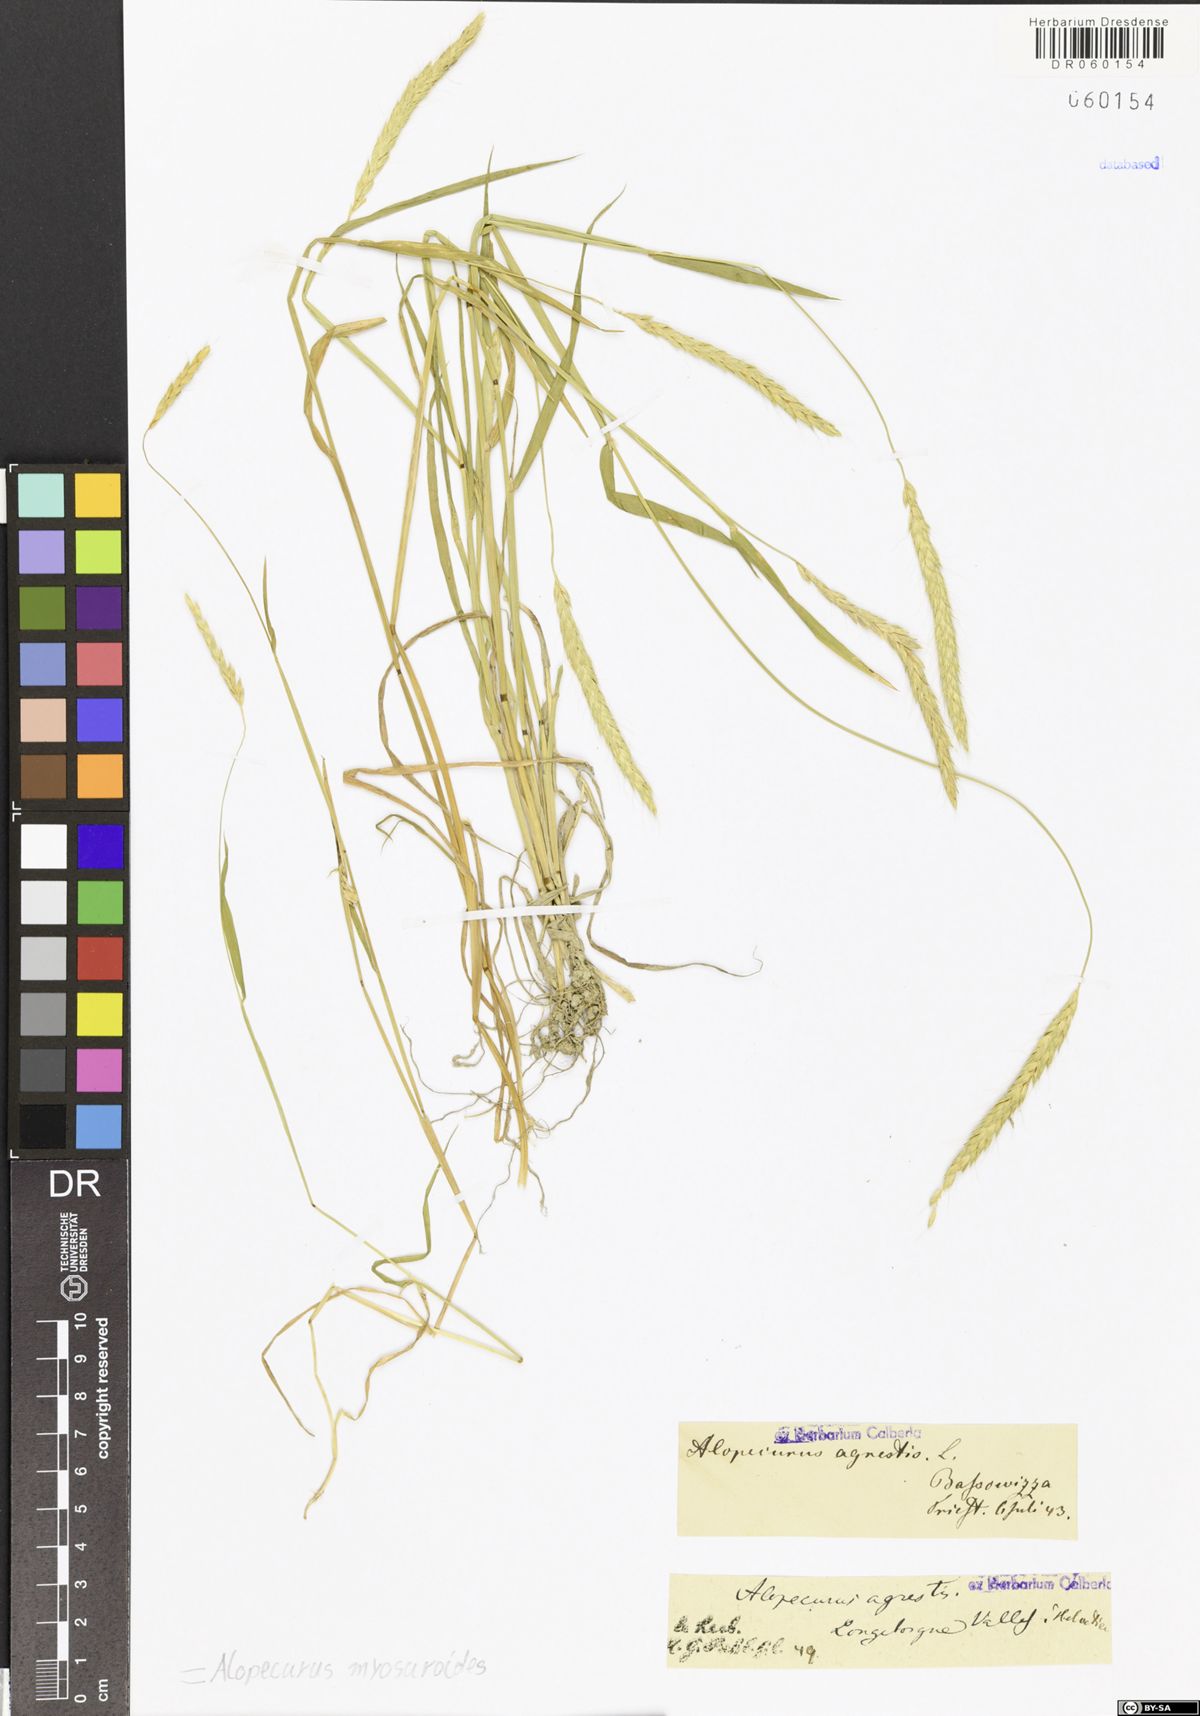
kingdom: Plantae
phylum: Tracheophyta
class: Liliopsida
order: Poales
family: Poaceae
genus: Alopecurus
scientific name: Alopecurus myosuroides
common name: Black-grass
